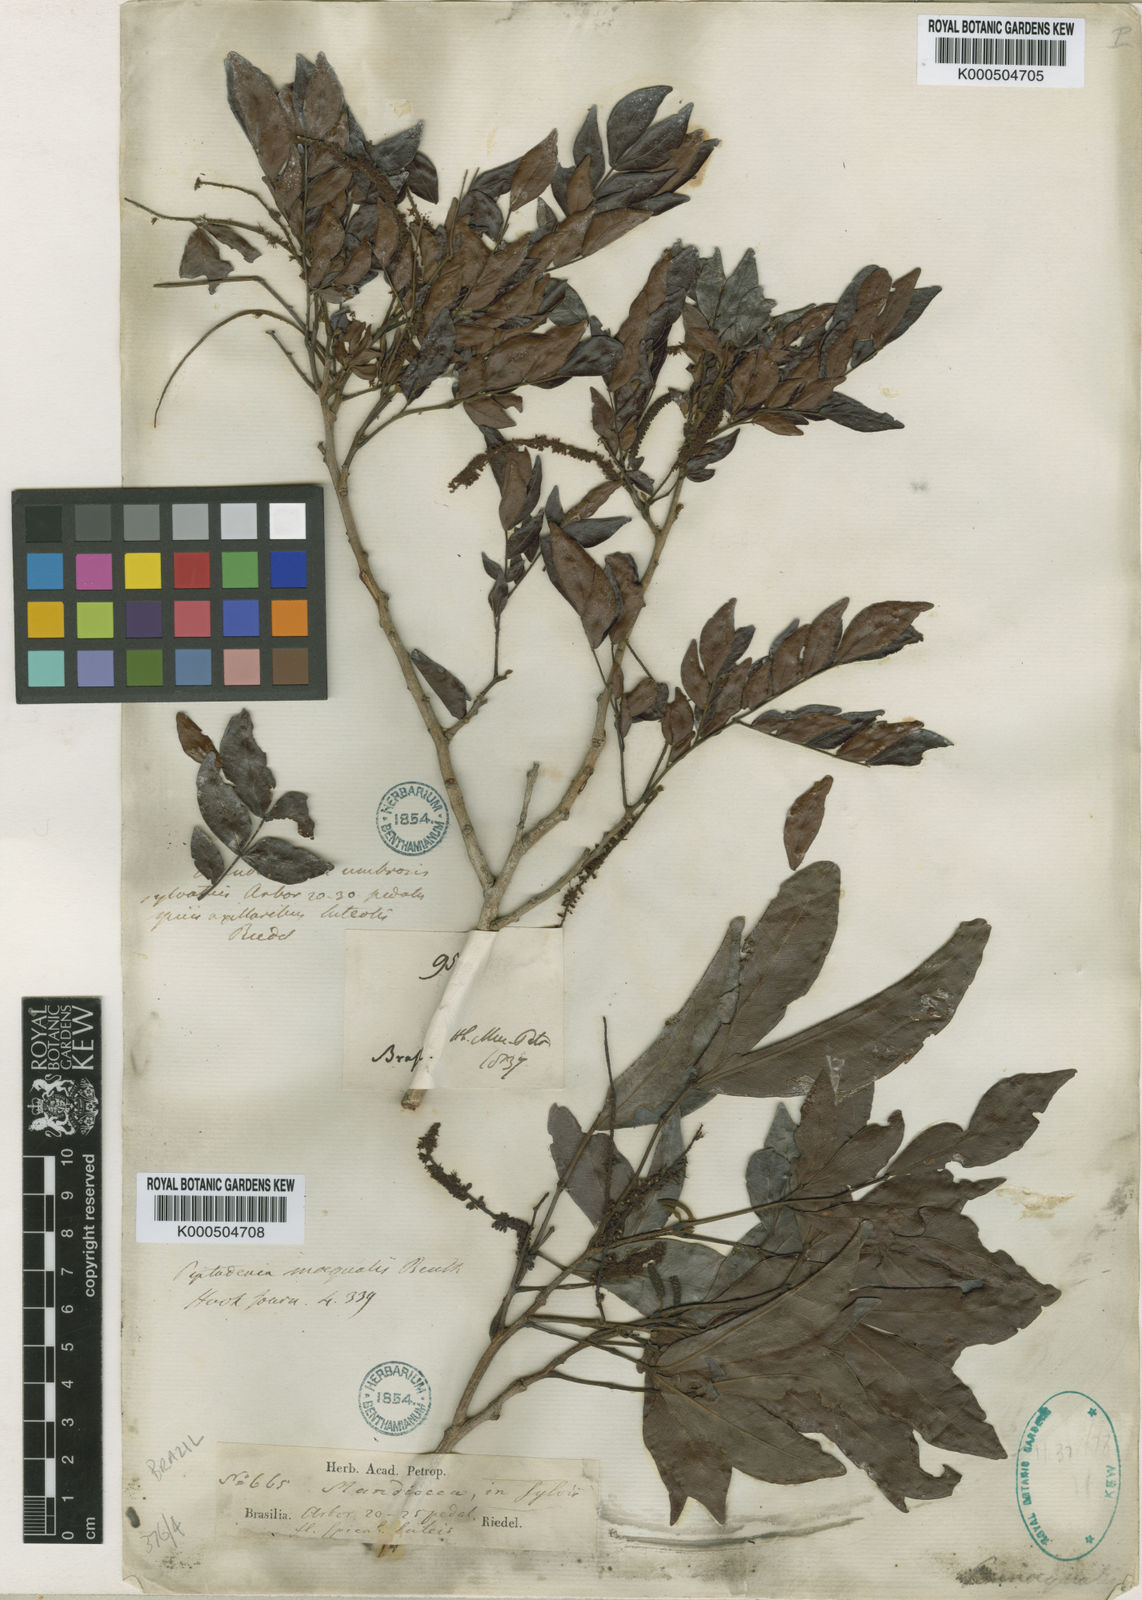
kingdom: Plantae
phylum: Tracheophyta
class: Magnoliopsida
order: Fabales
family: Fabaceae
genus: Pseudopiptadenia
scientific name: Pseudopiptadenia inaequalis
